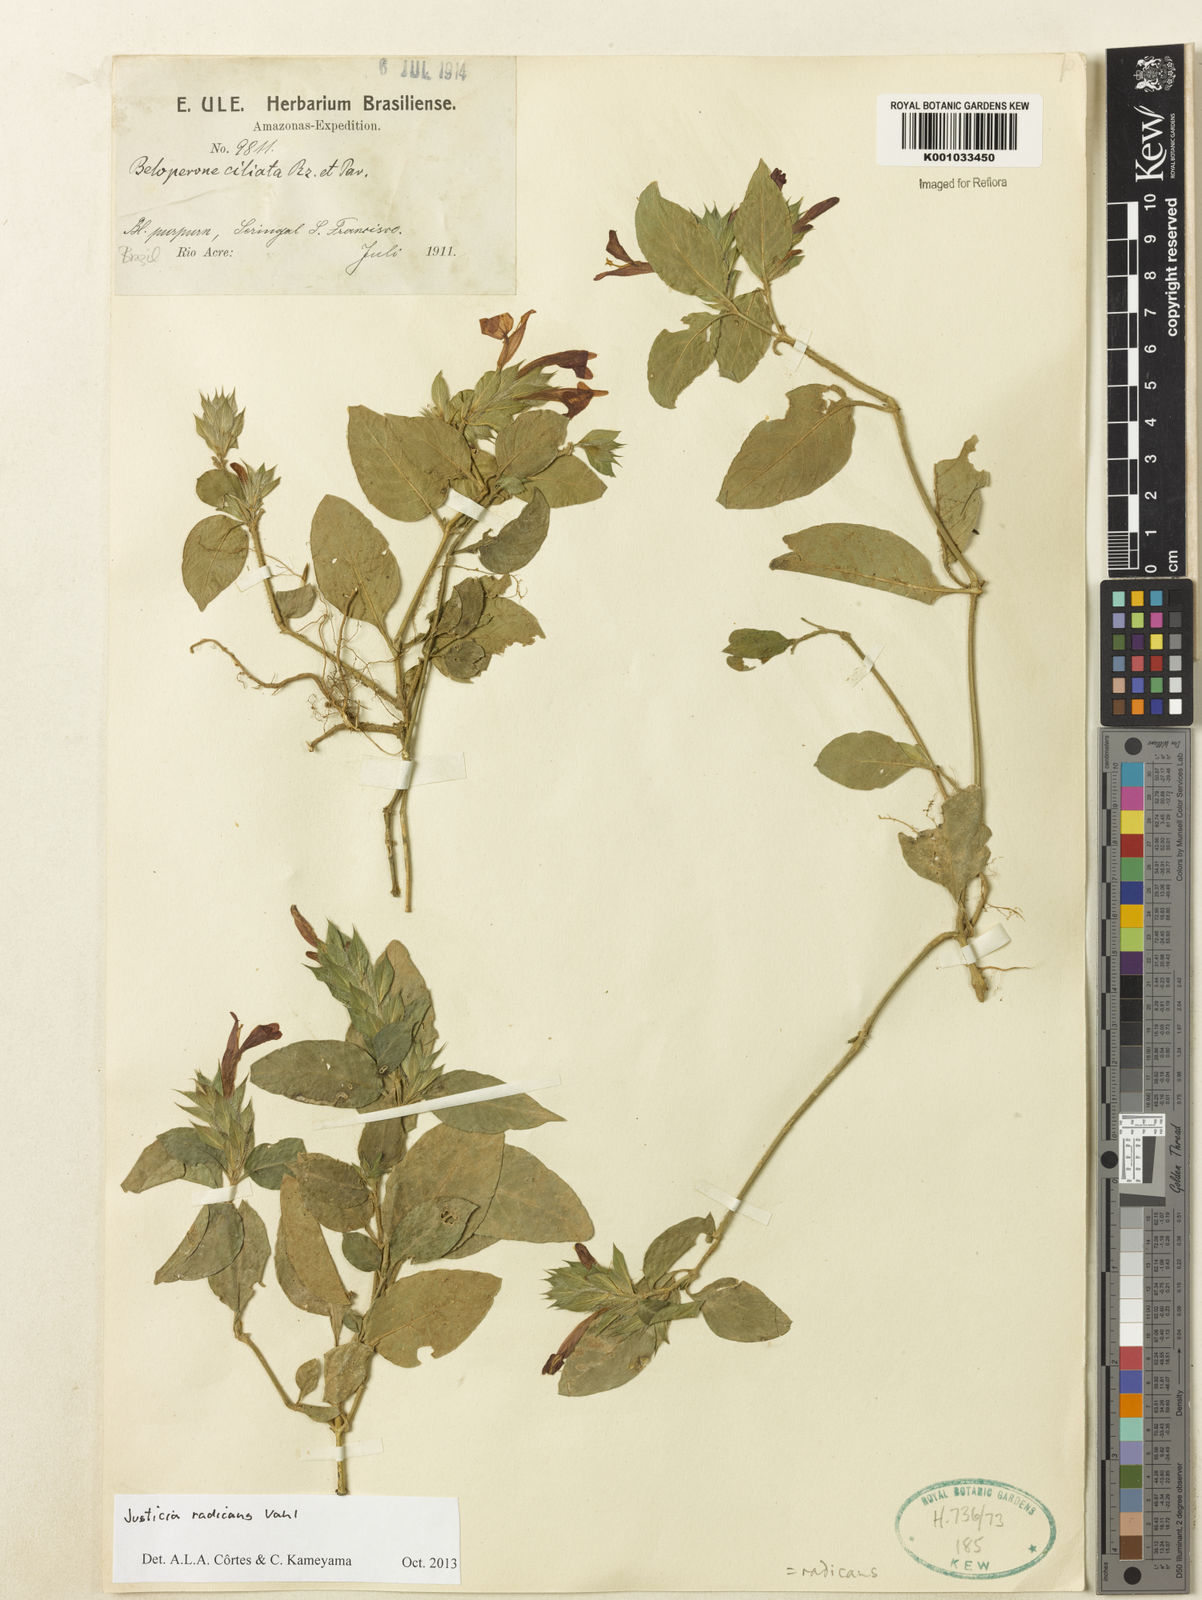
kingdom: Plantae
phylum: Tracheophyta
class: Magnoliopsida
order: Lamiales
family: Acanthaceae
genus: Justicia
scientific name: Justicia radicans
